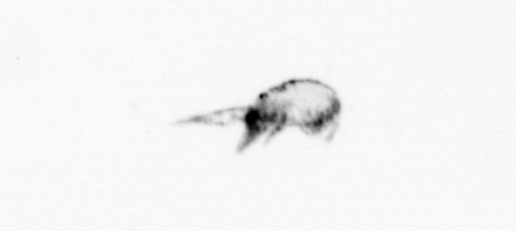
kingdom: Animalia
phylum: Arthropoda
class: Maxillopoda
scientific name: Maxillopoda
